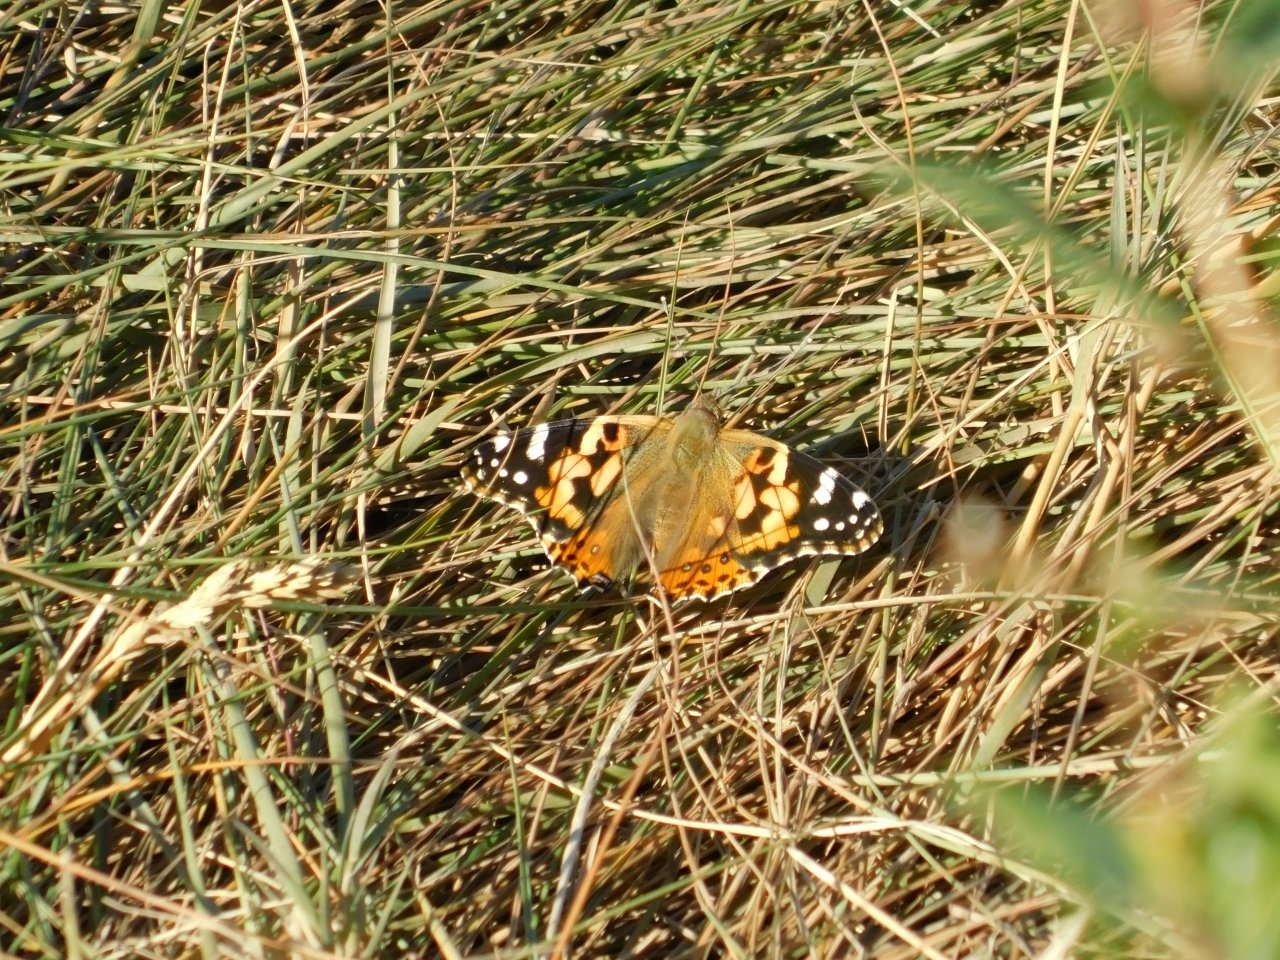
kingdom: Animalia
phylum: Arthropoda
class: Insecta
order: Lepidoptera
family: Nymphalidae
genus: Vanessa
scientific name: Vanessa cardui
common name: Painted Lady
